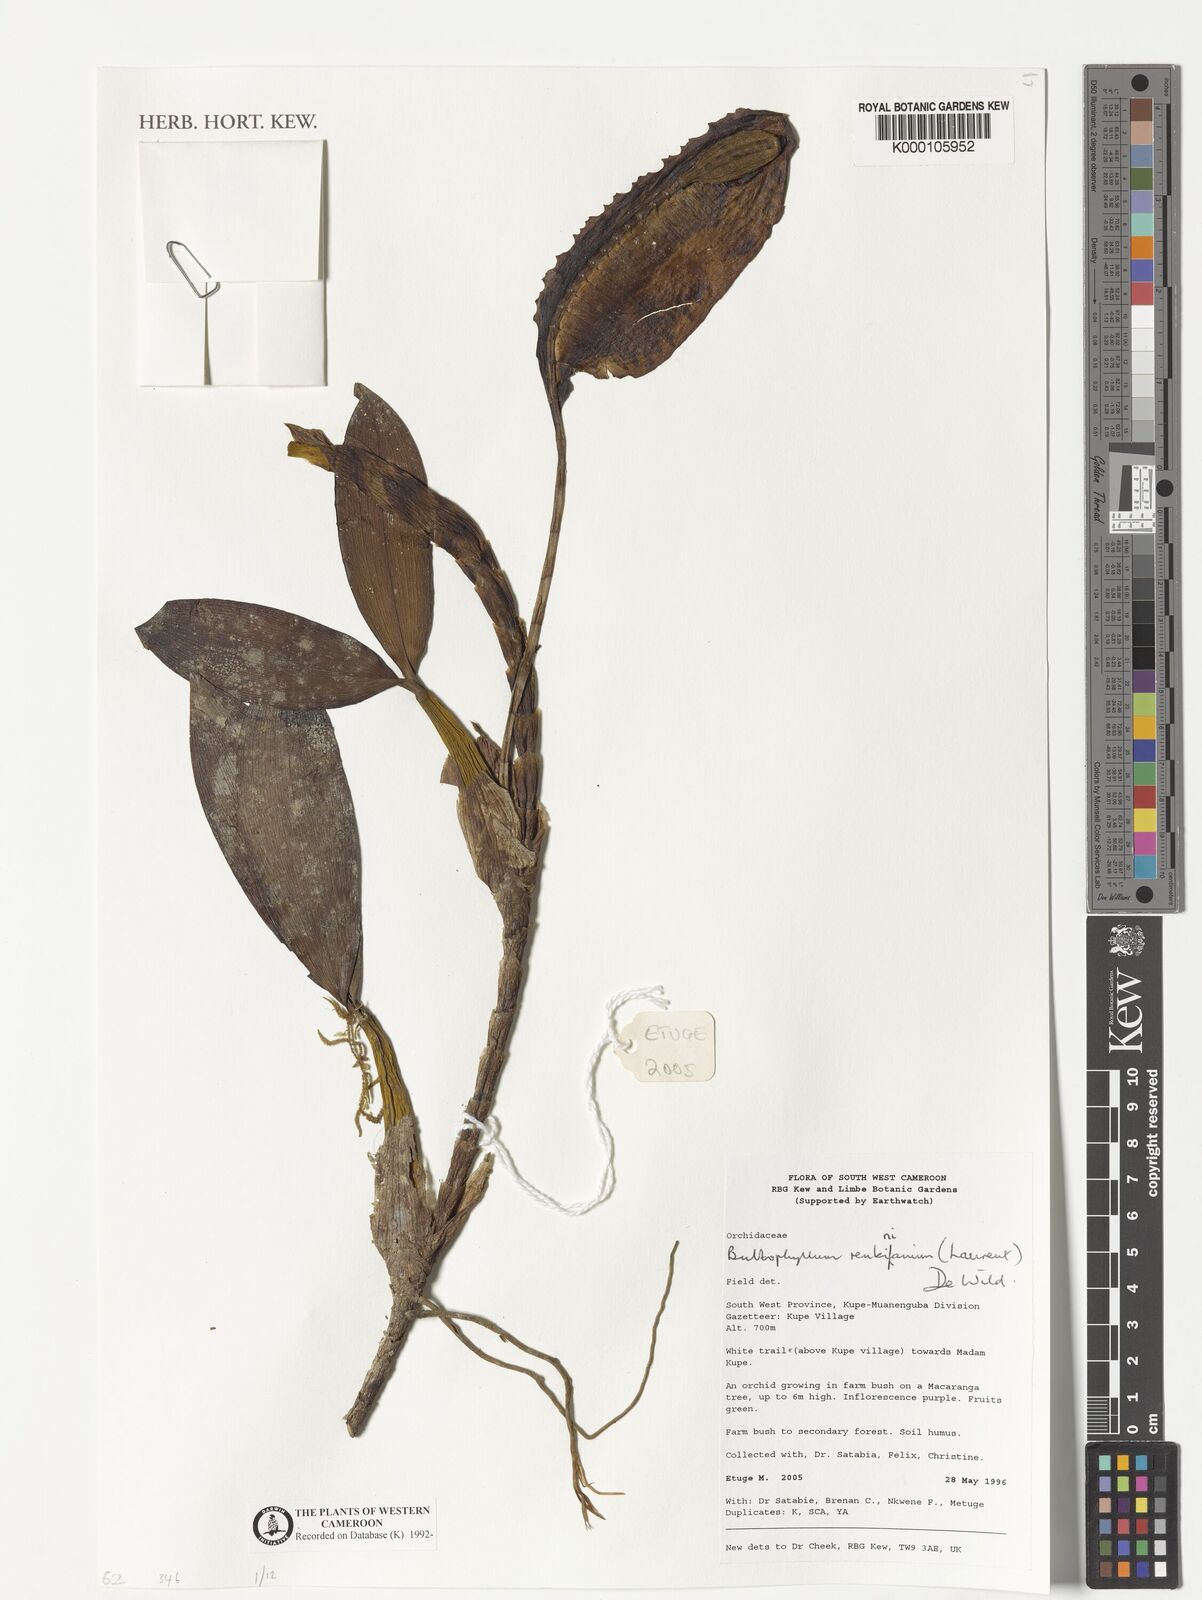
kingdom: Plantae
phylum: Tracheophyta
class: Liliopsida
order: Asparagales
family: Orchidaceae
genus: Bulbophyllum
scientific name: Bulbophyllum renkinianum
